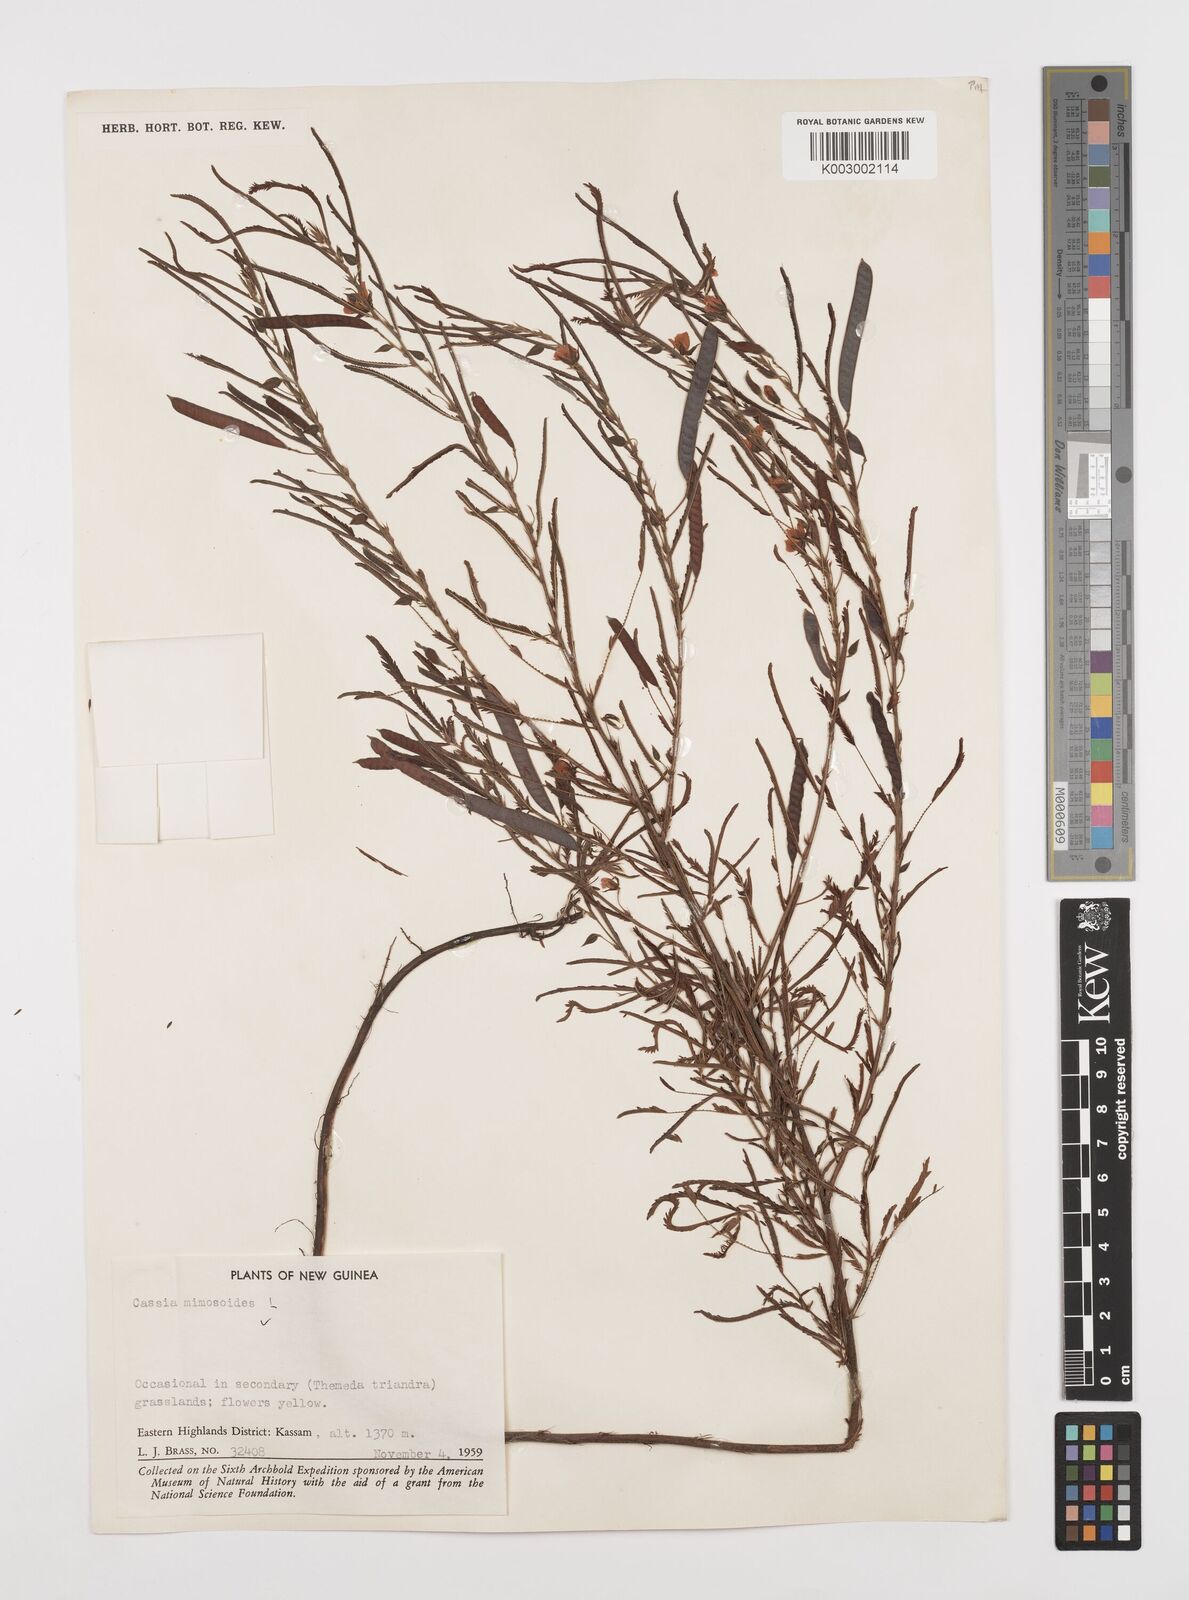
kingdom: Plantae
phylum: Tracheophyta
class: Magnoliopsida
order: Fabales
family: Fabaceae
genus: Chamaecrista
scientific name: Chamaecrista mimosoides
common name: Fish-bone cassia
